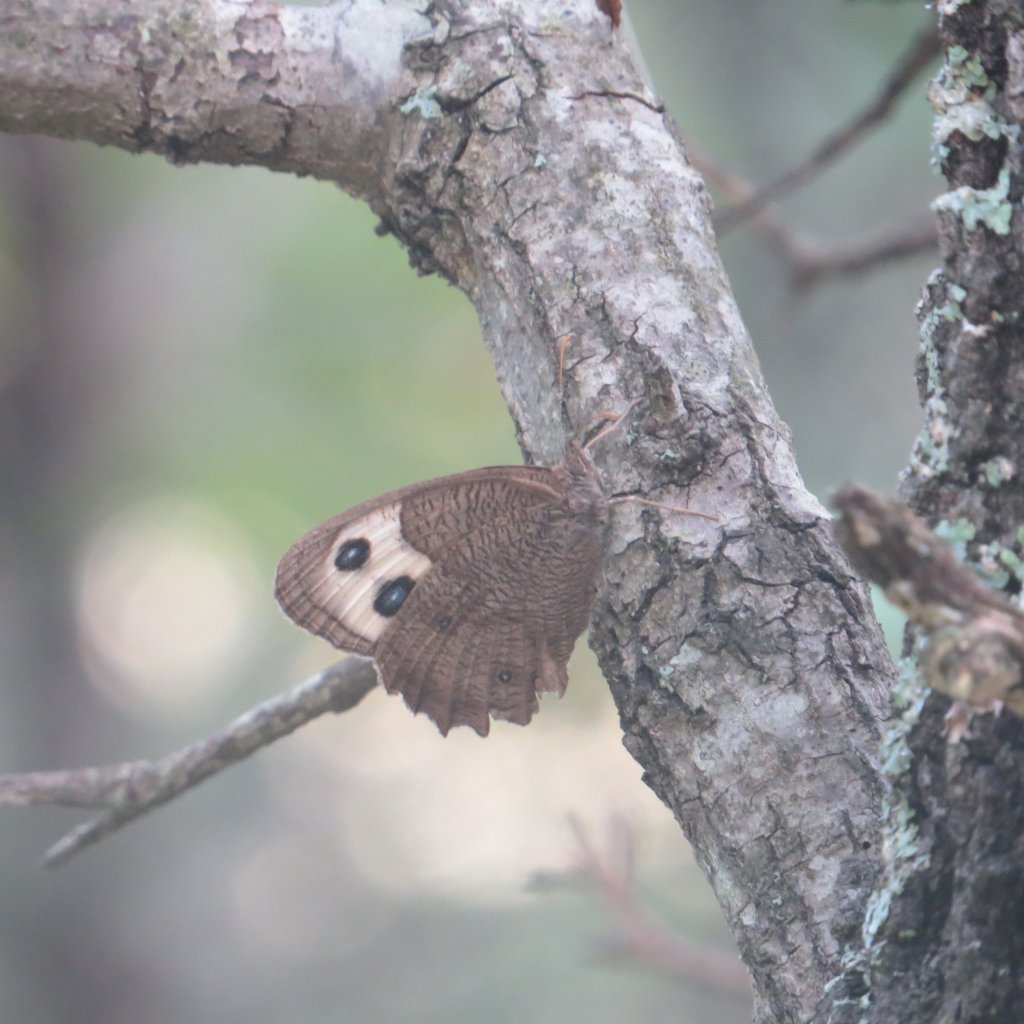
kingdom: Animalia
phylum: Arthropoda
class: Insecta
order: Lepidoptera
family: Nymphalidae
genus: Cercyonis
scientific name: Cercyonis pegala
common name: Common Wood-Nymph
